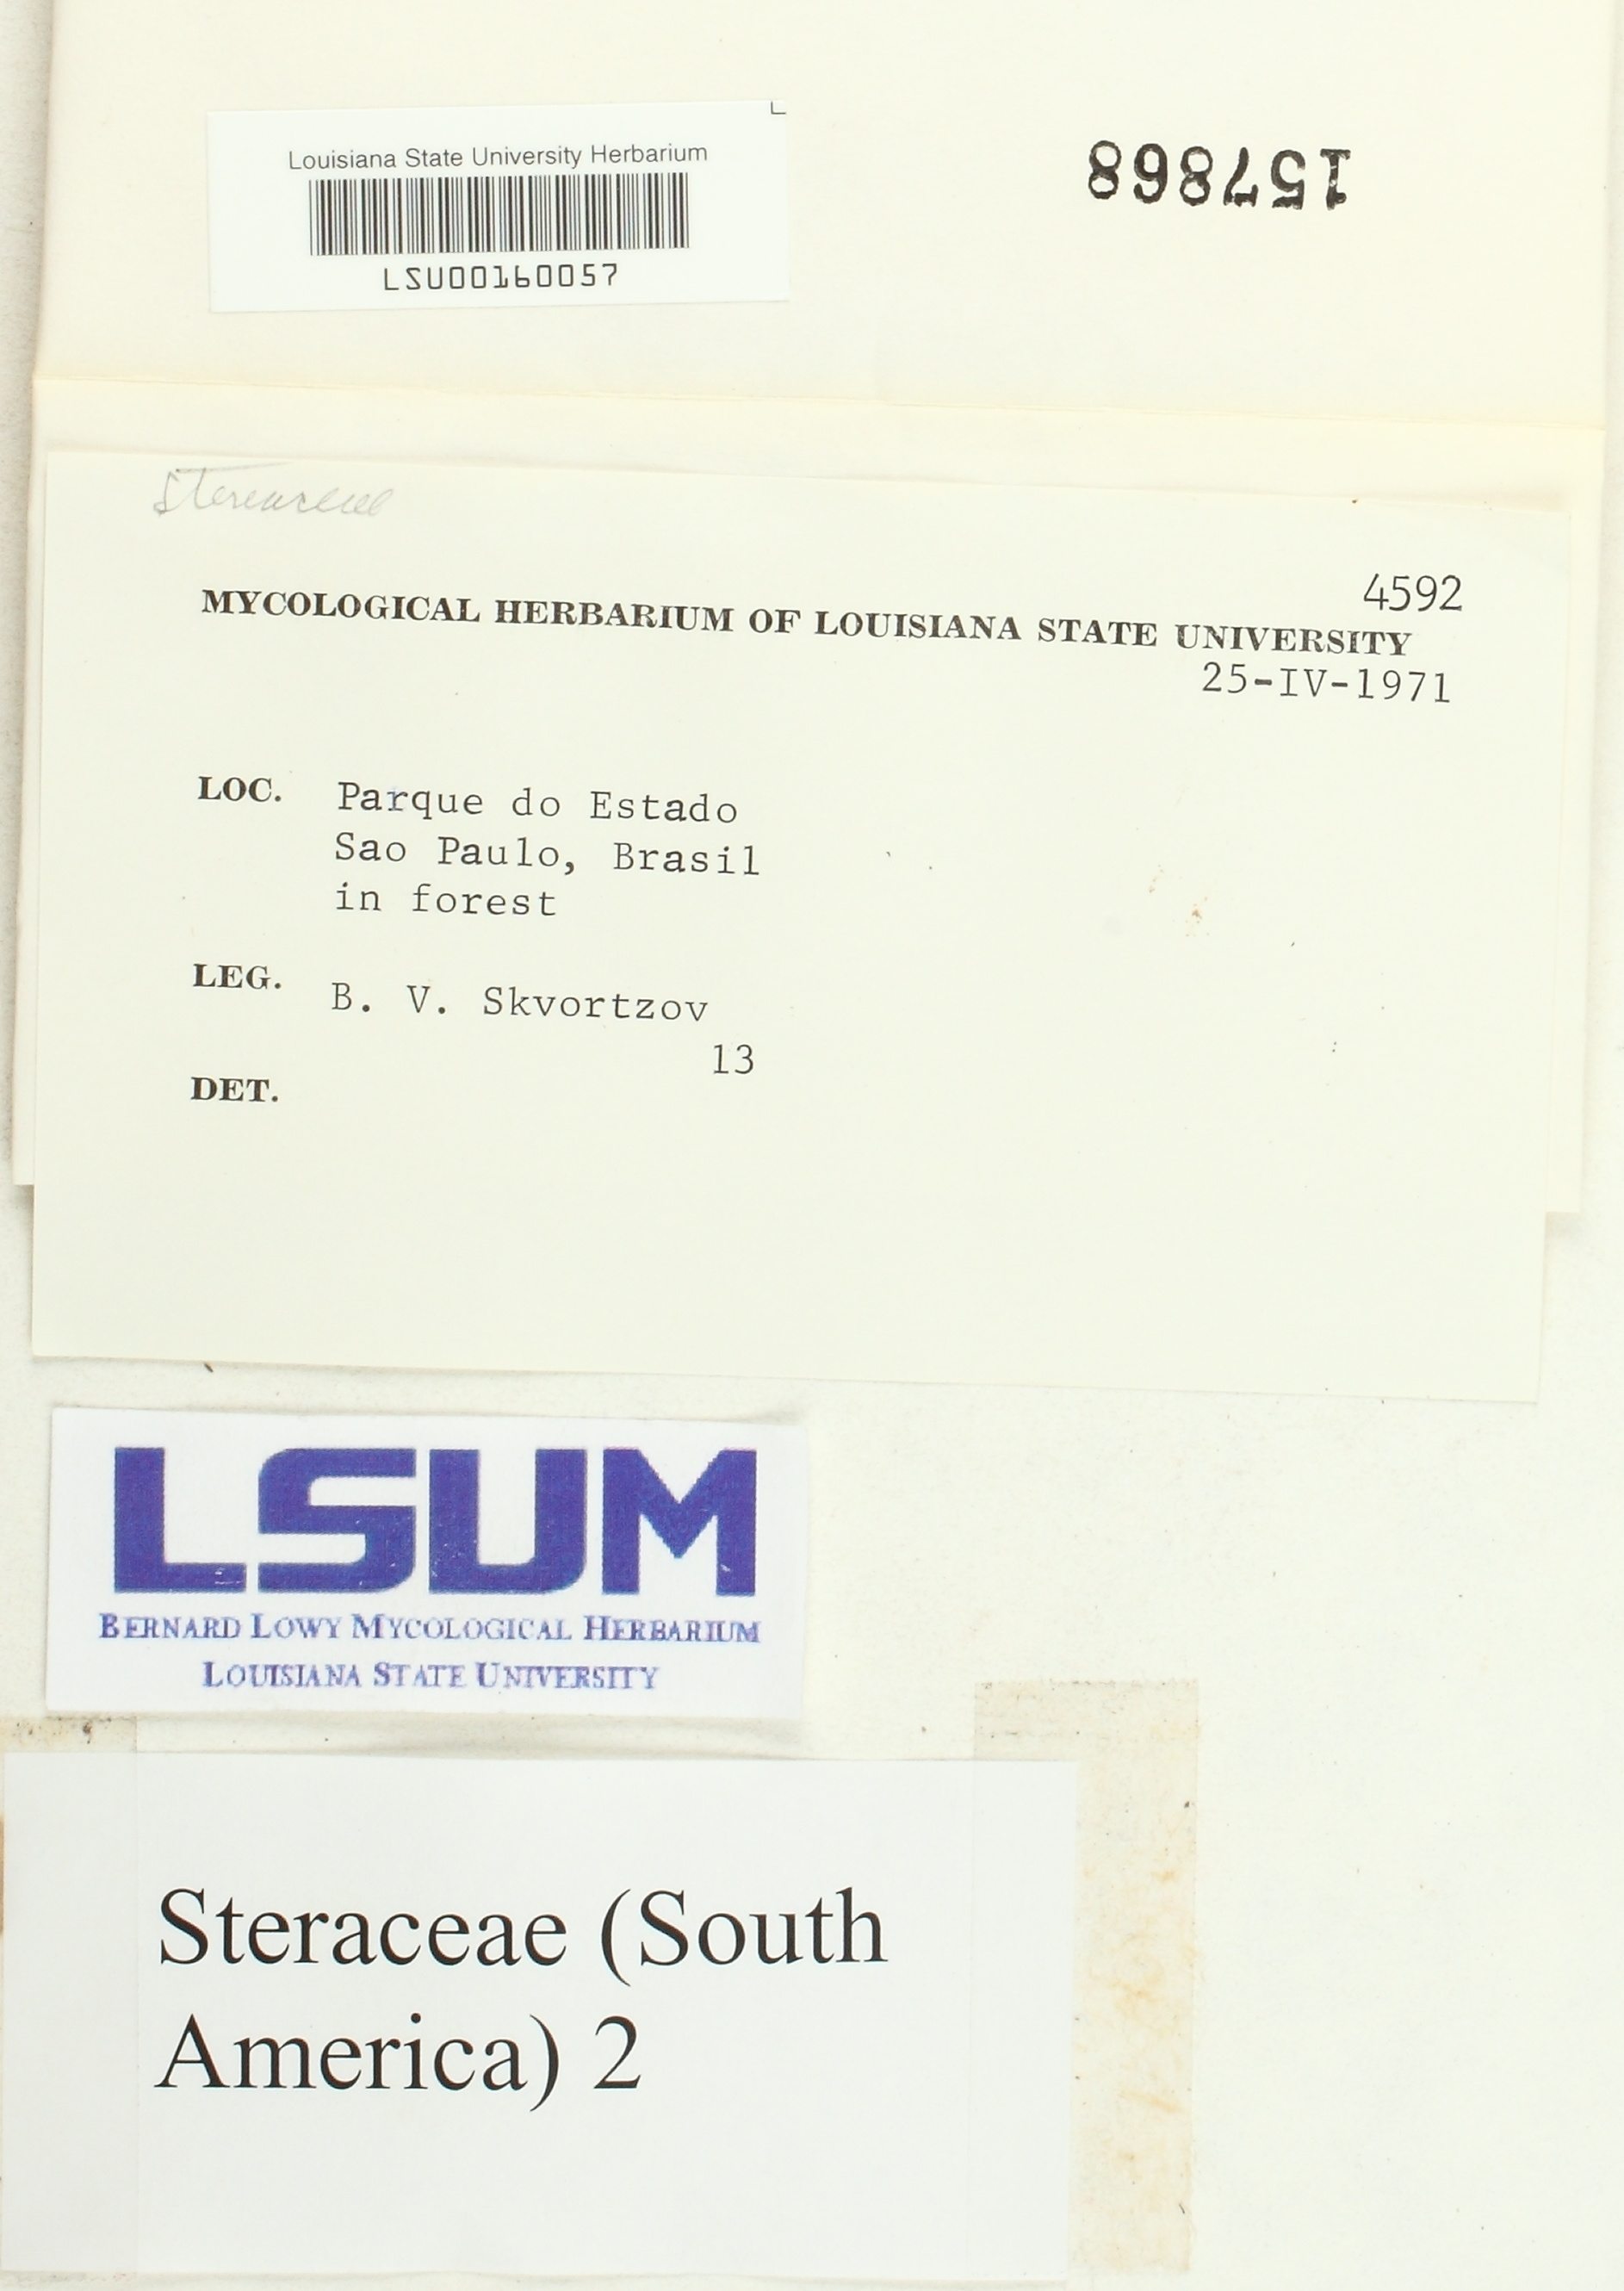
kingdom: Fungi
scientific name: Fungi
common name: Fungi
